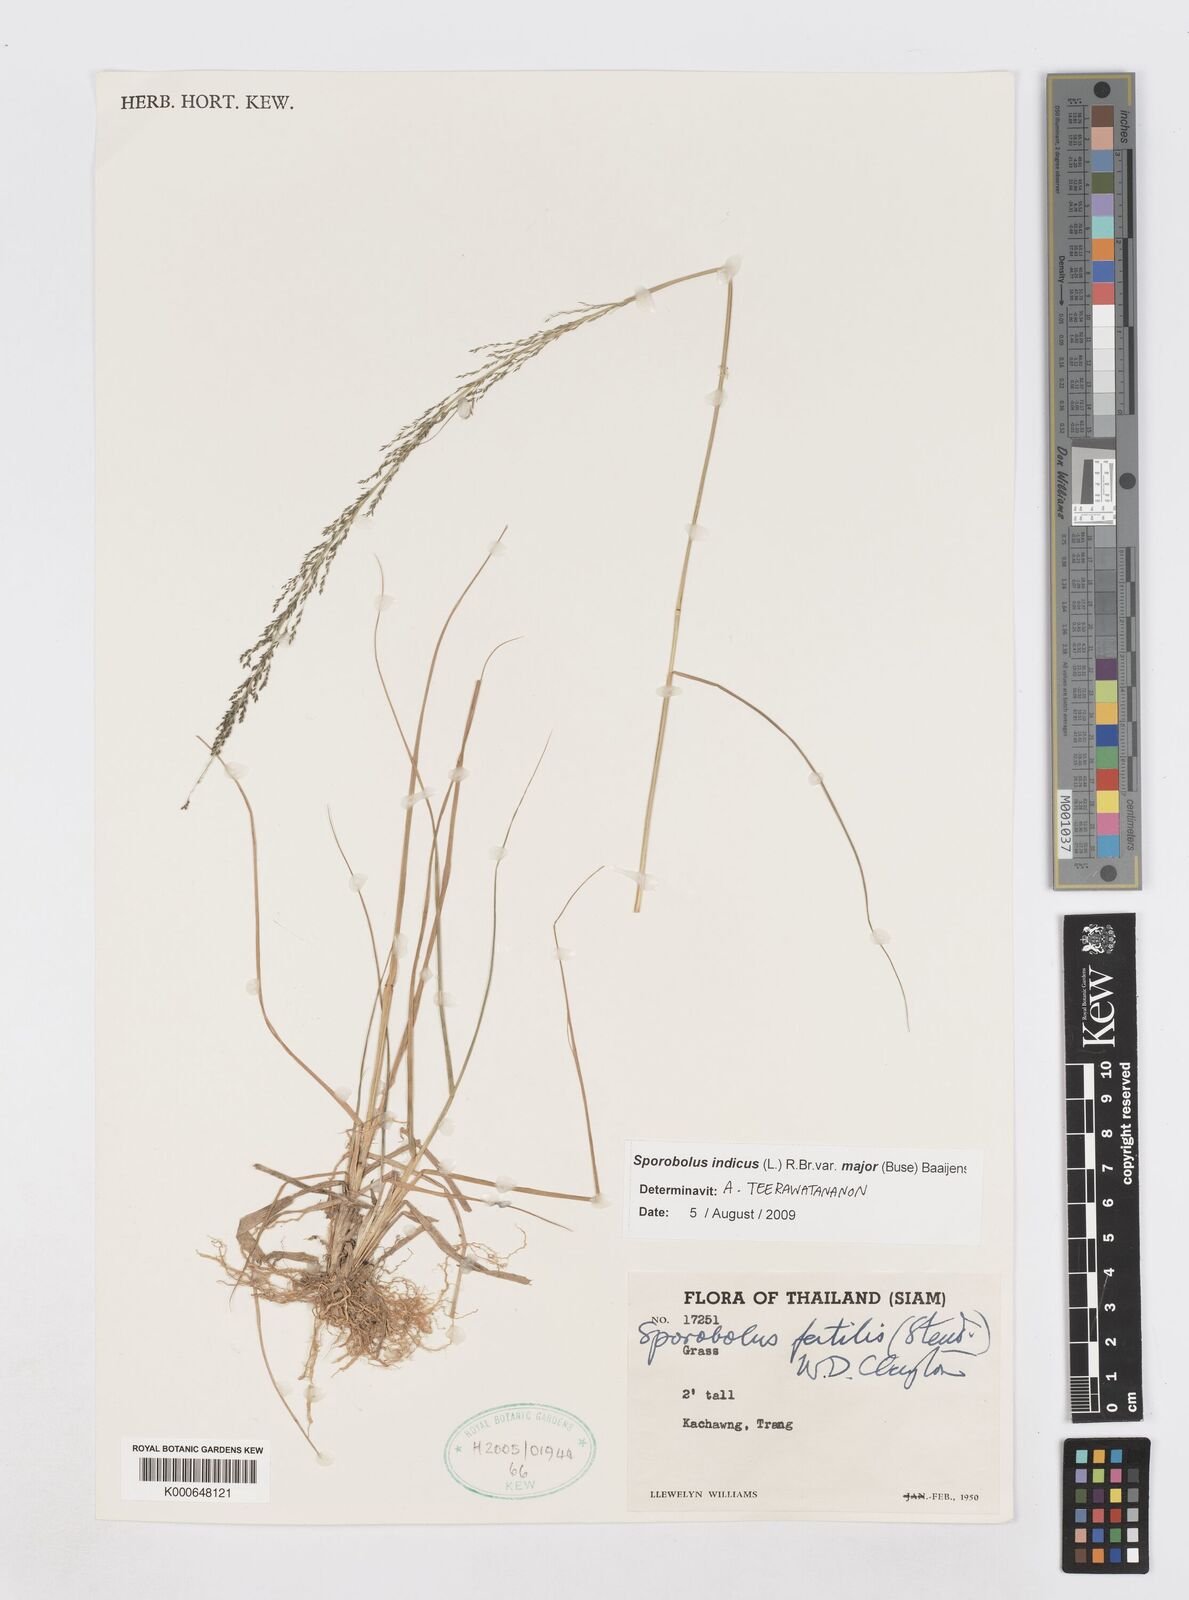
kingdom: Plantae
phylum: Tracheophyta
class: Liliopsida
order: Poales
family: Poaceae
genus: Sporobolus
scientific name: Sporobolus fertilis
